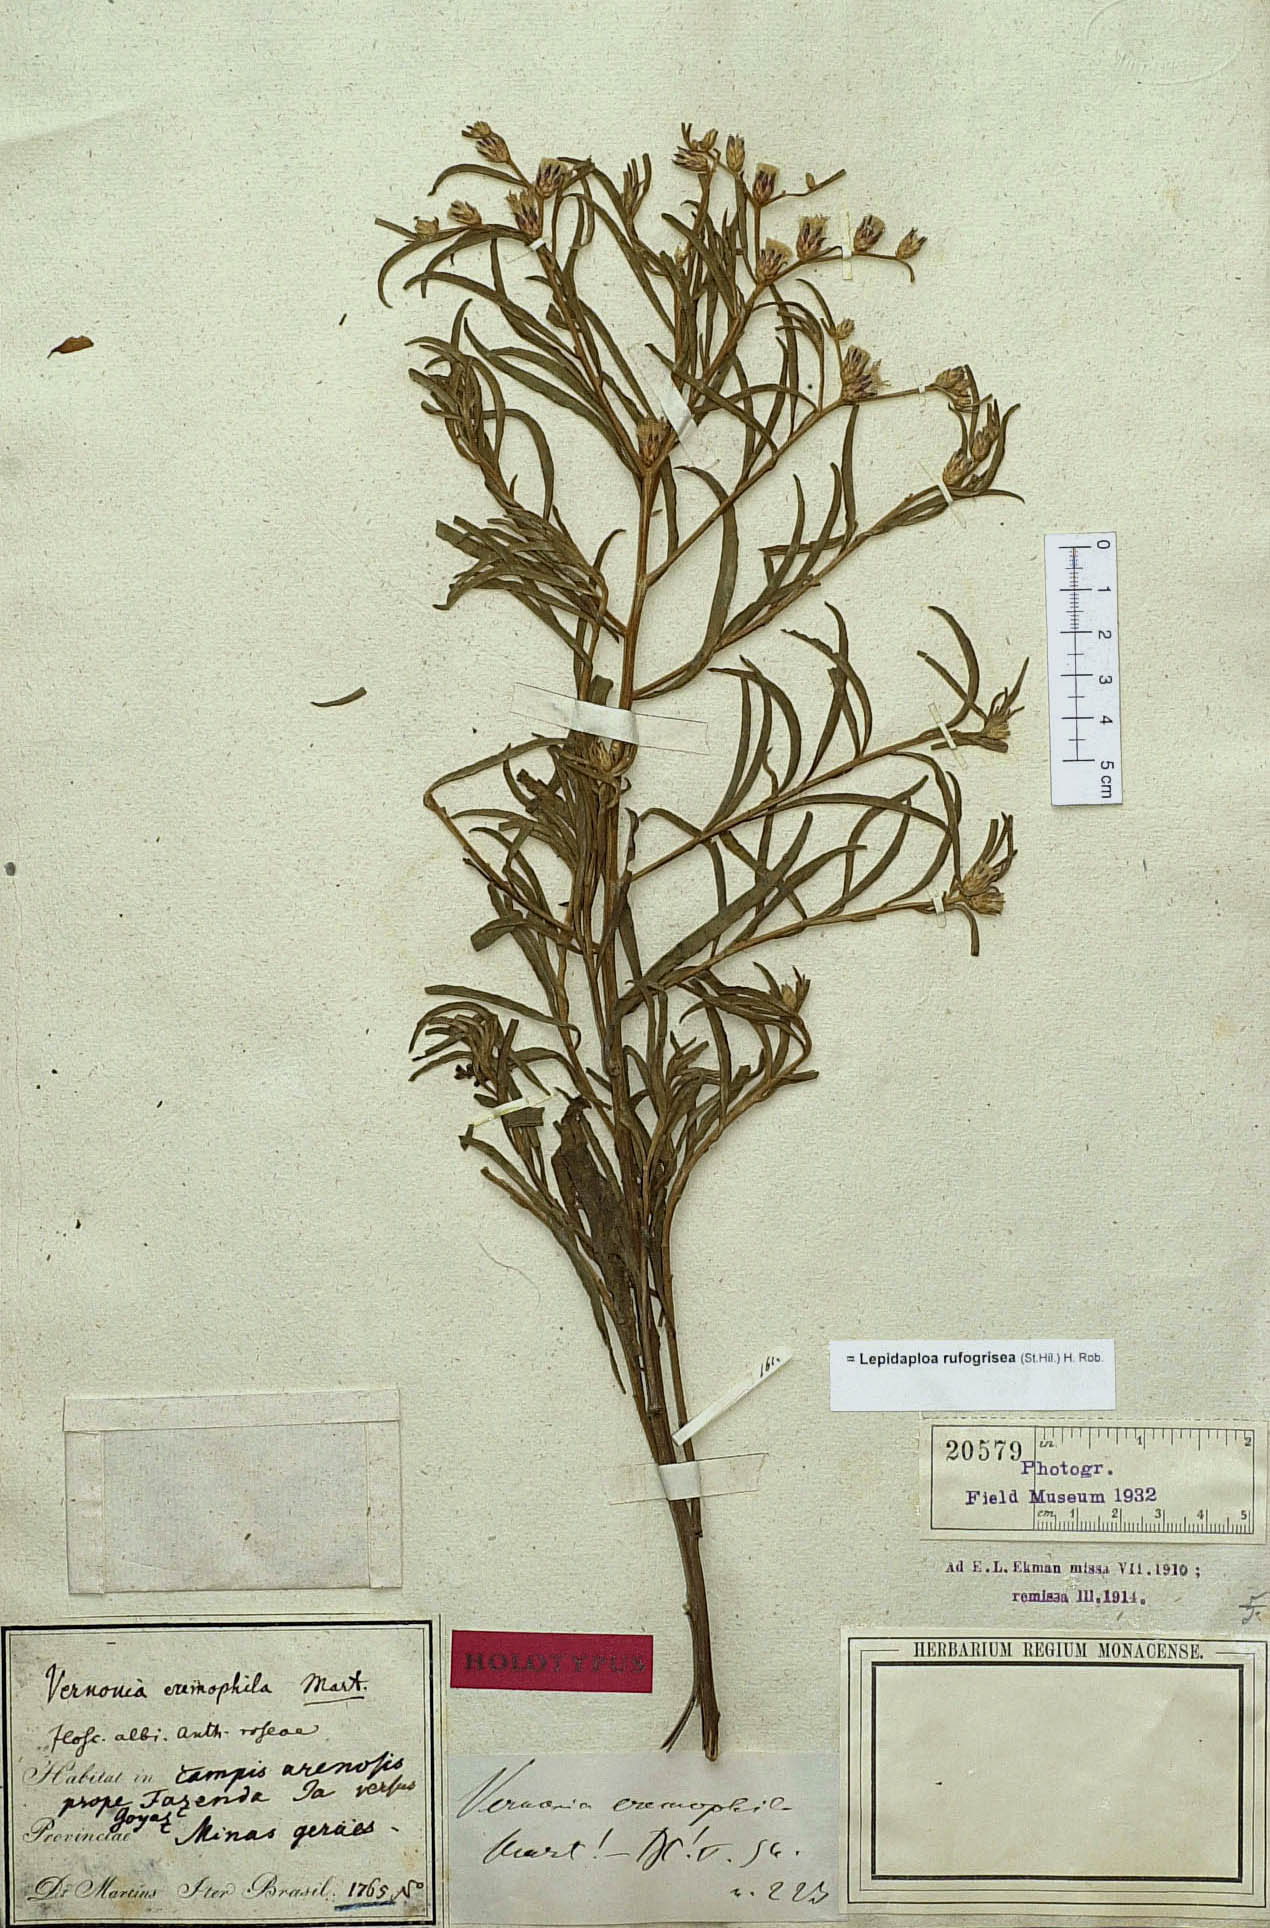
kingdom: Plantae
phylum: Tracheophyta
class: Magnoliopsida
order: Asterales
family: Asteraceae
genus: Lepidaploa
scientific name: Lepidaploa rufogrisea
